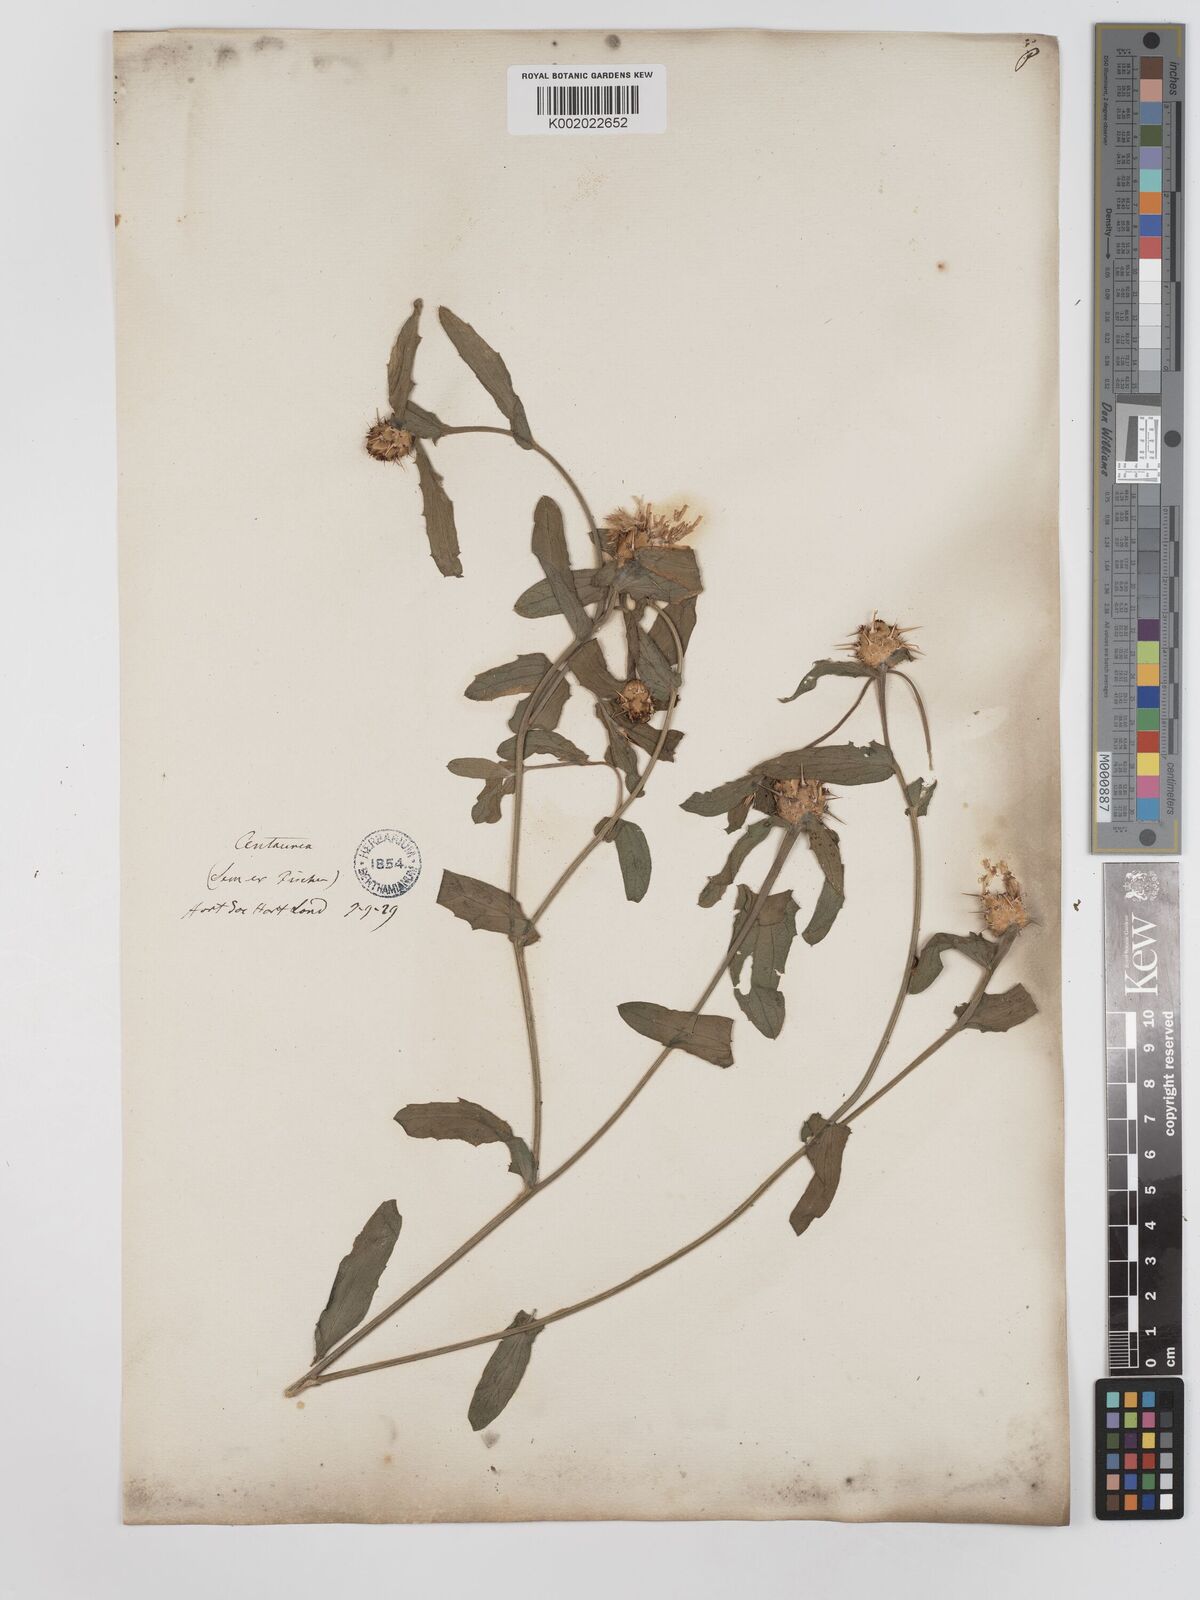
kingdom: Plantae
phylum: Tracheophyta
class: Magnoliopsida
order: Asterales
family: Asteraceae
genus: Centaurea
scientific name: Centaurea sicula
